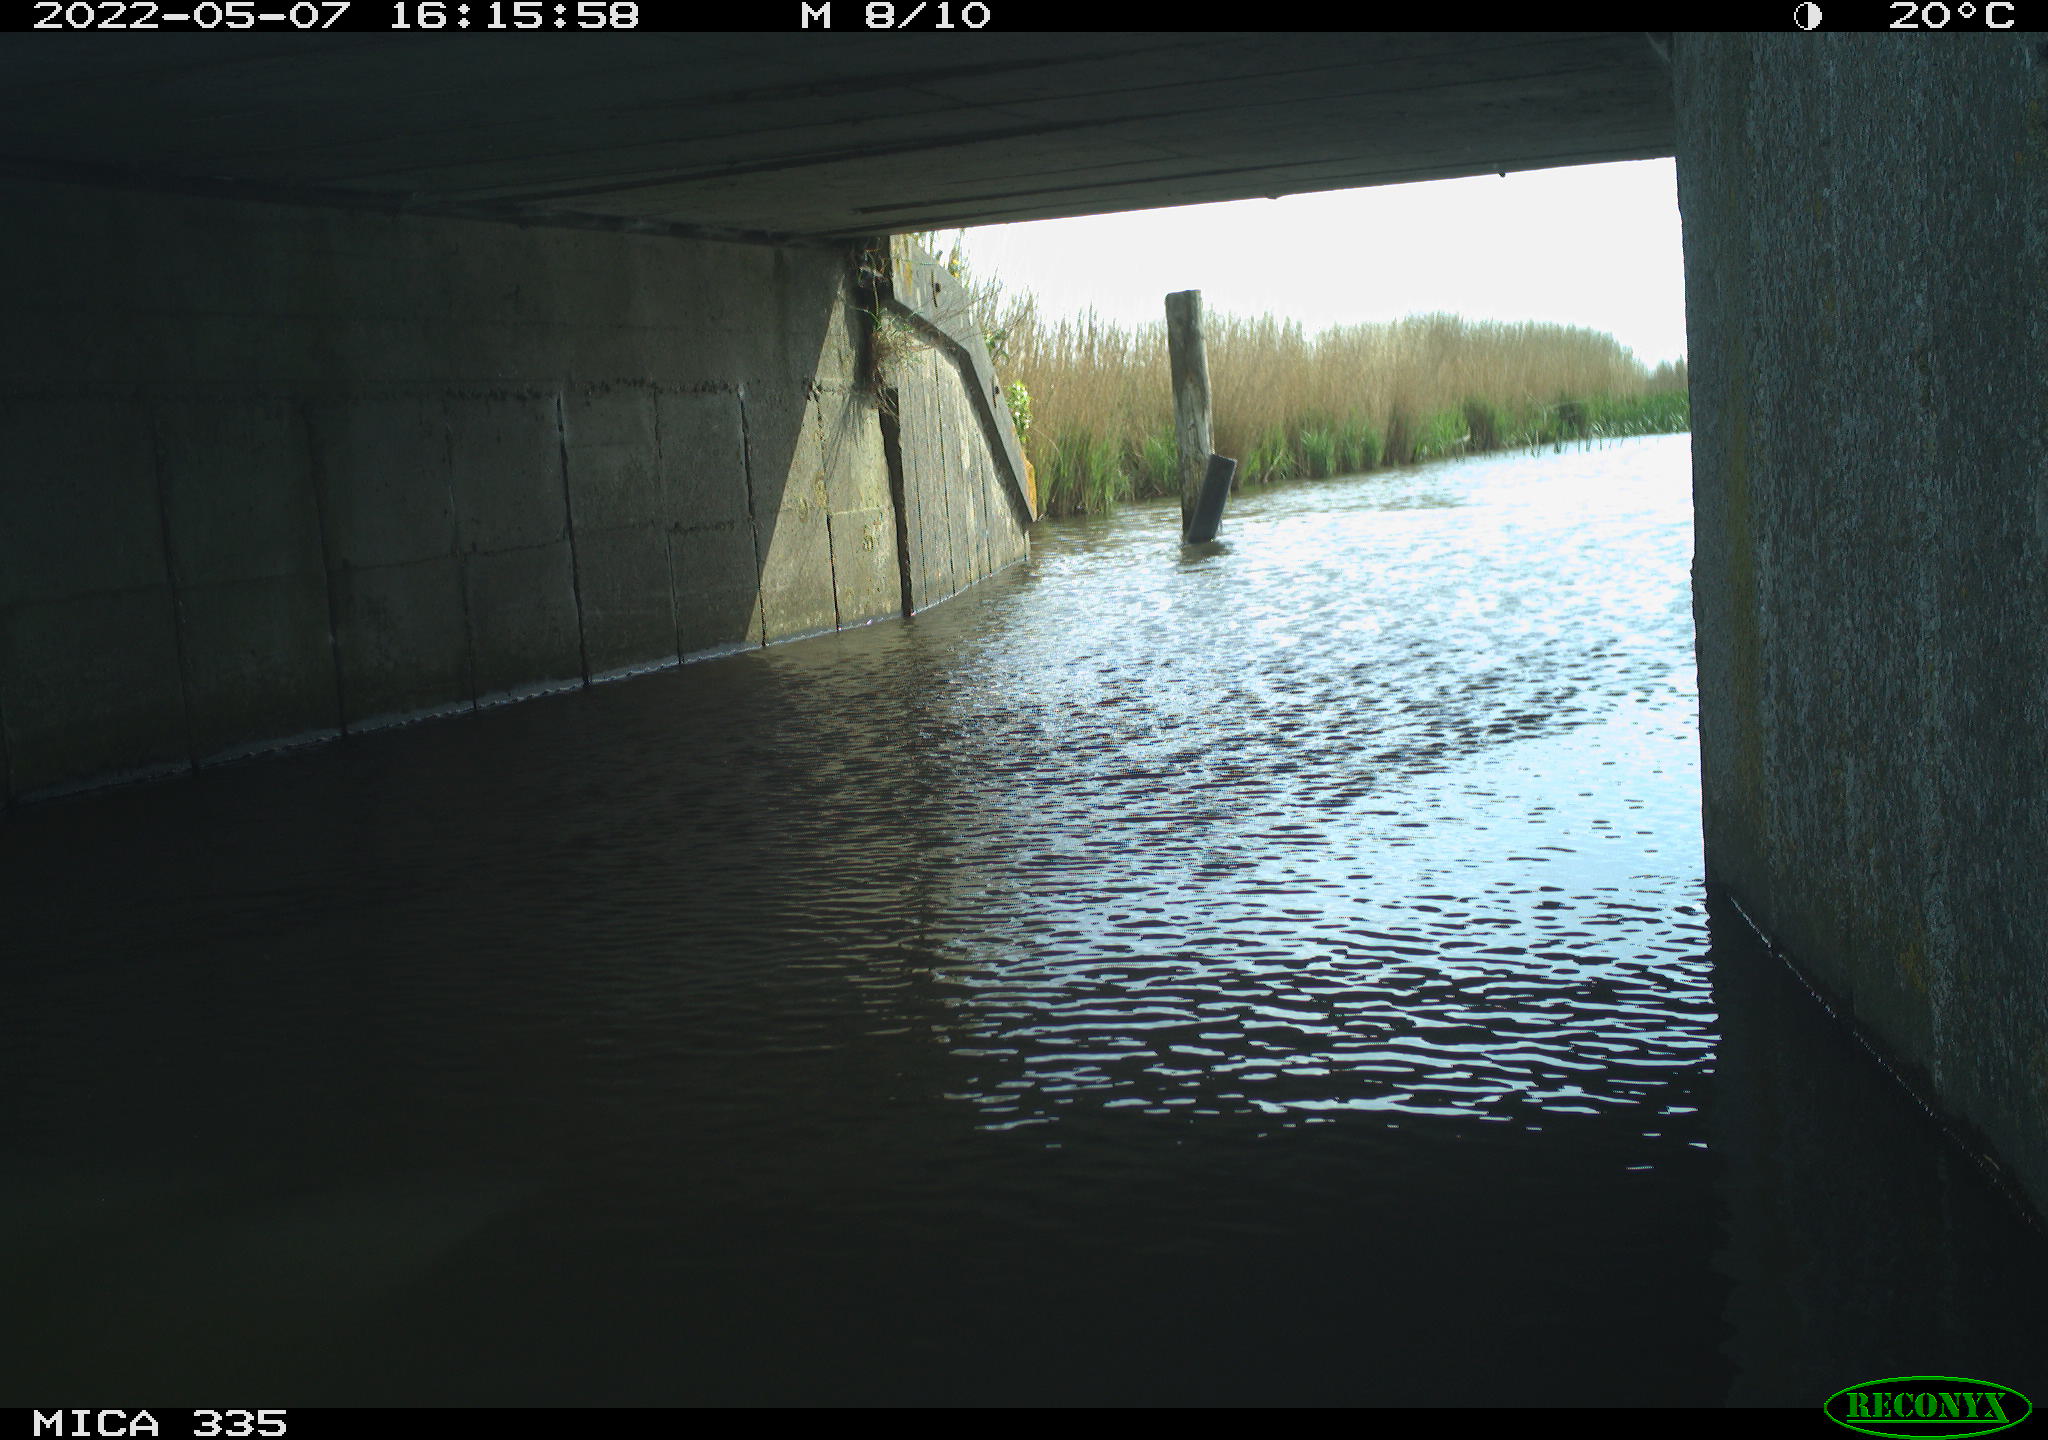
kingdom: Animalia
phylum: Chordata
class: Aves
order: Anseriformes
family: Anatidae
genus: Anas
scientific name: Anas platyrhynchos
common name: Mallard
